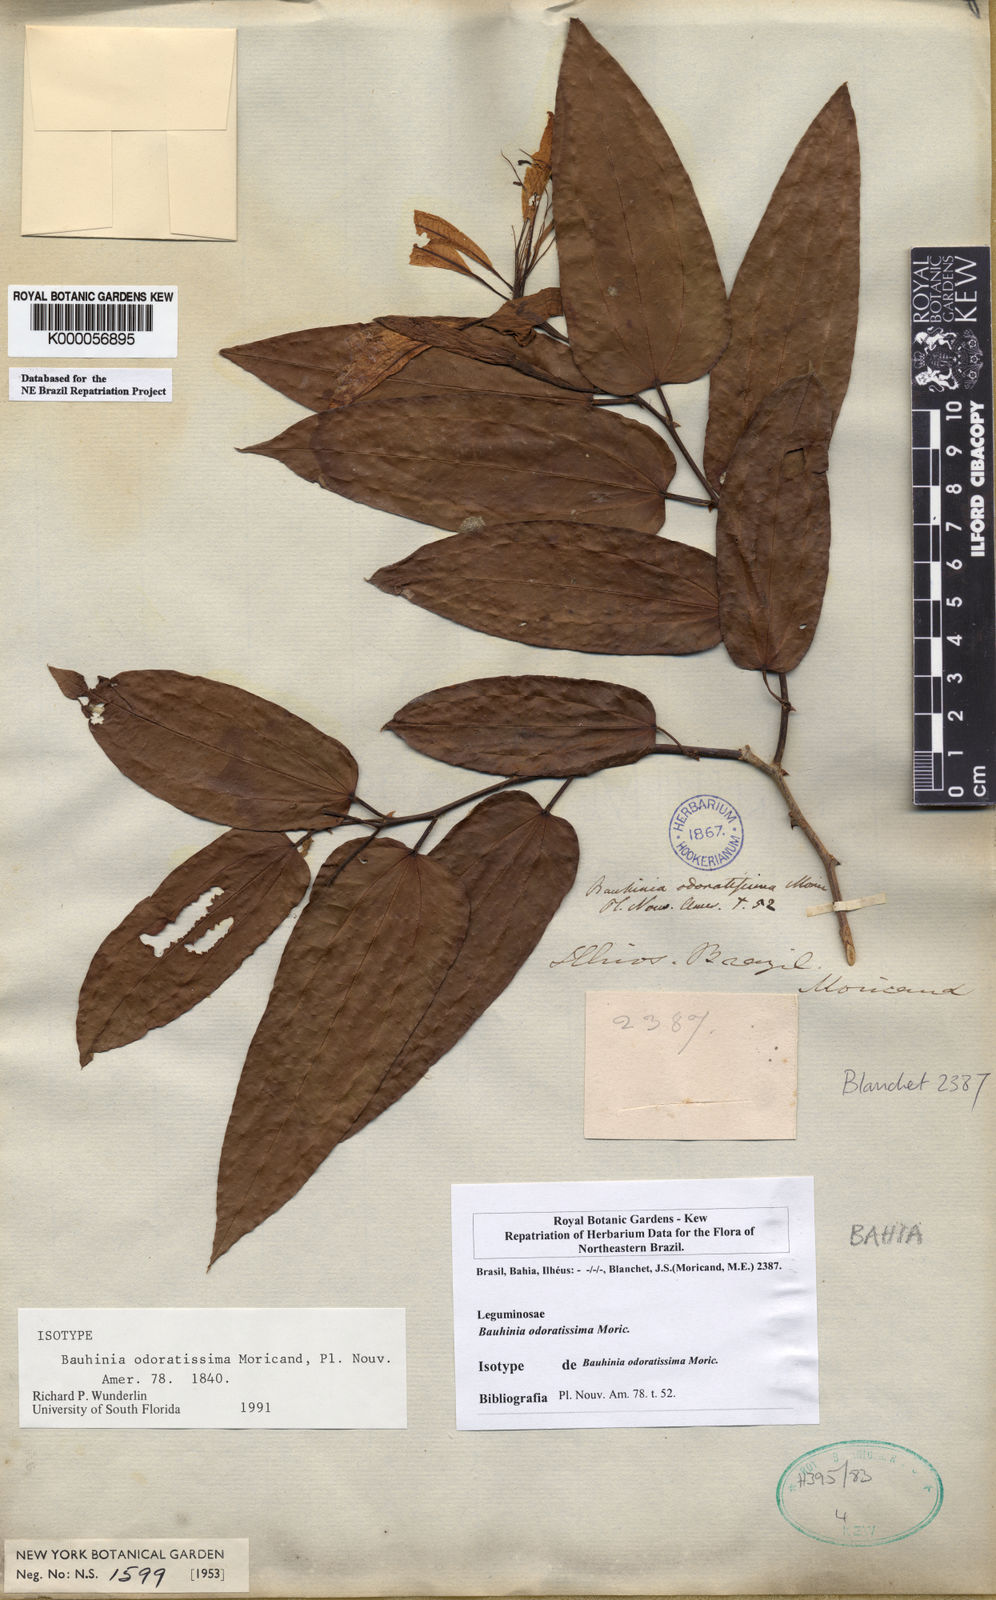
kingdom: Plantae
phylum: Tracheophyta
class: Magnoliopsida
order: Fabales
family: Fabaceae
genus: Bauhinia
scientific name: Bauhinia integerrima
